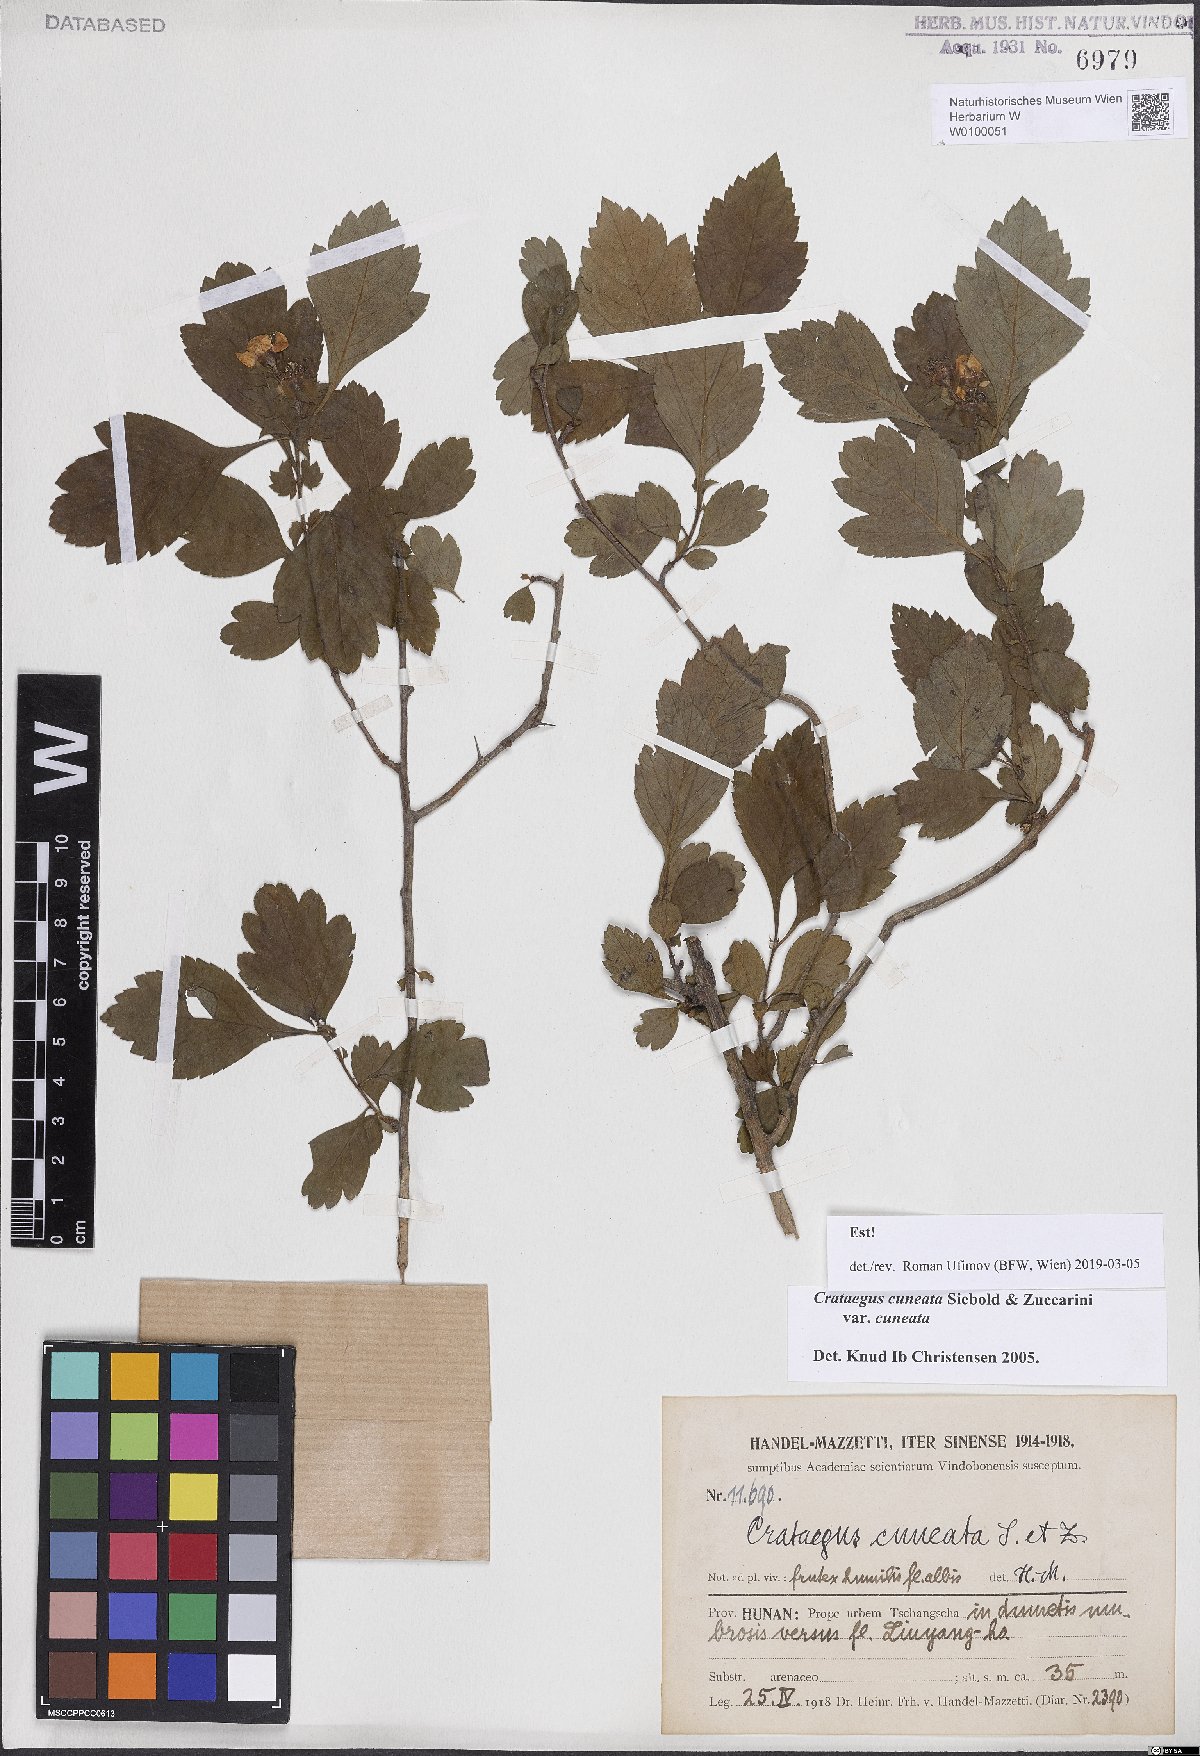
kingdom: Plantae
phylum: Tracheophyta
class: Magnoliopsida
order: Rosales
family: Rosaceae
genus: Crataegus
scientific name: Crataegus cuneata
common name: Chinese hawthorn
